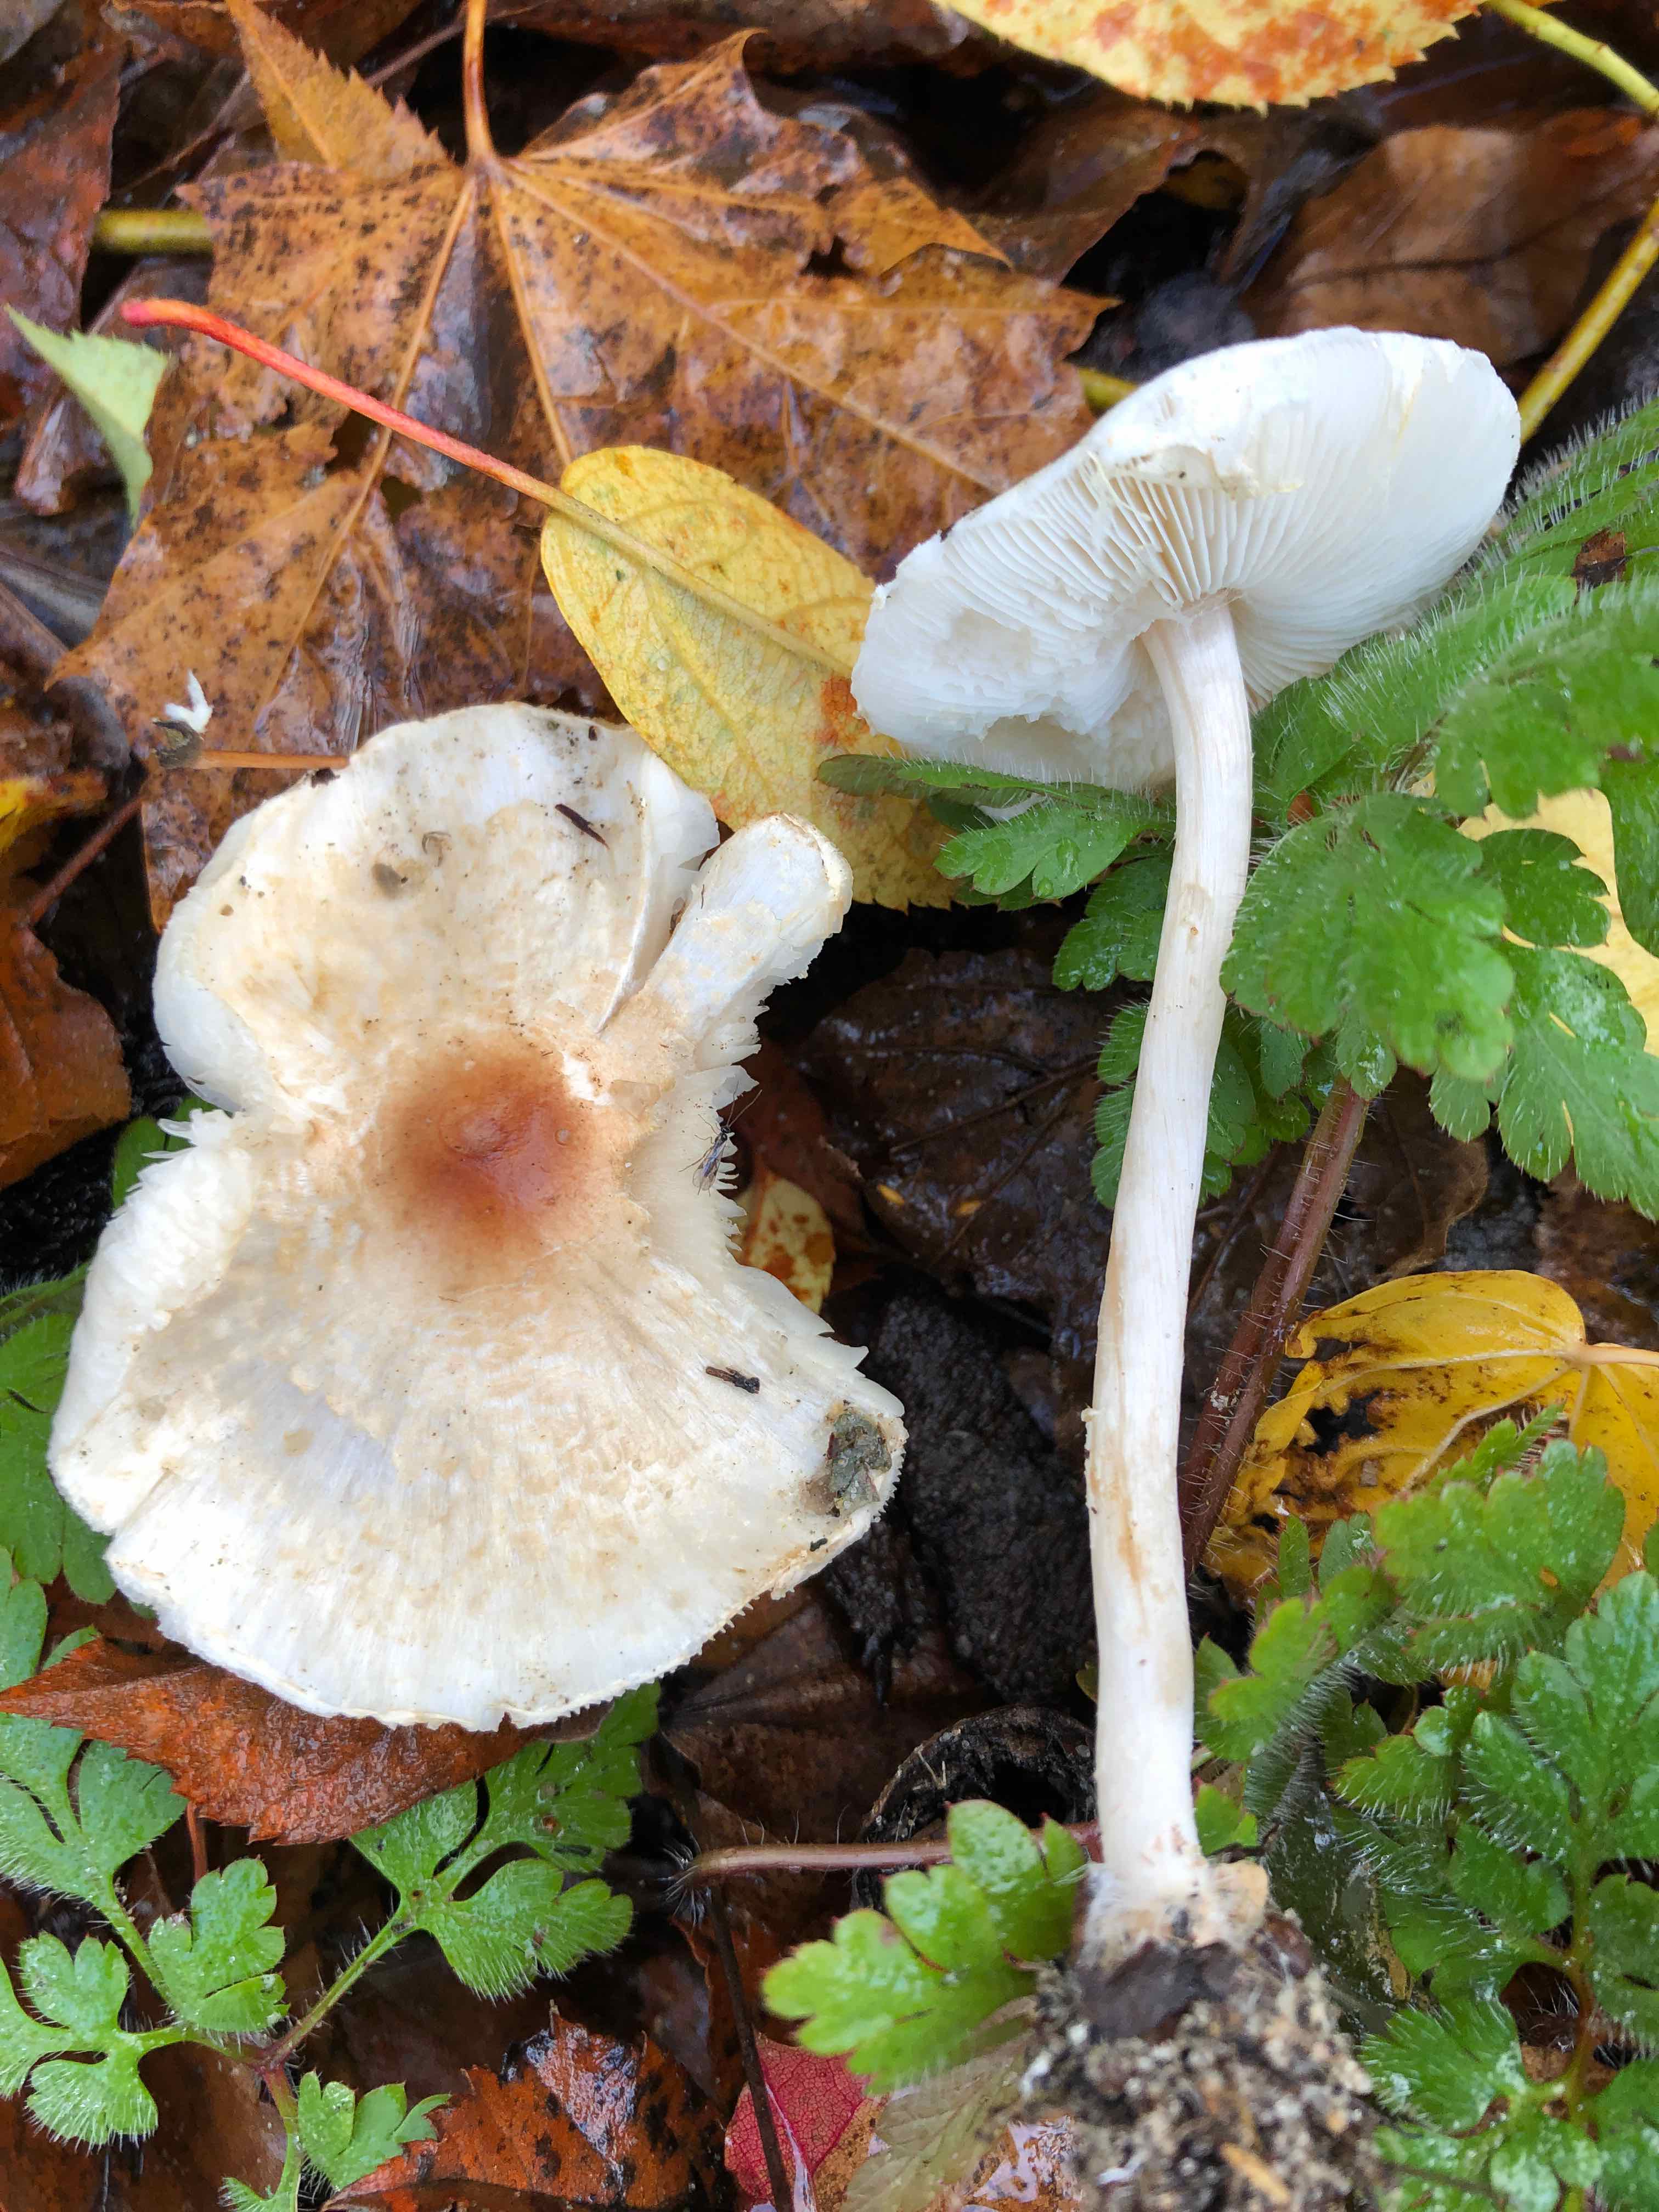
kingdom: Fungi
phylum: Basidiomycota
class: Agaricomycetes
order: Agaricales
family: Agaricaceae
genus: Lepiota
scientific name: Lepiota cristata
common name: stinkende parasolhat
